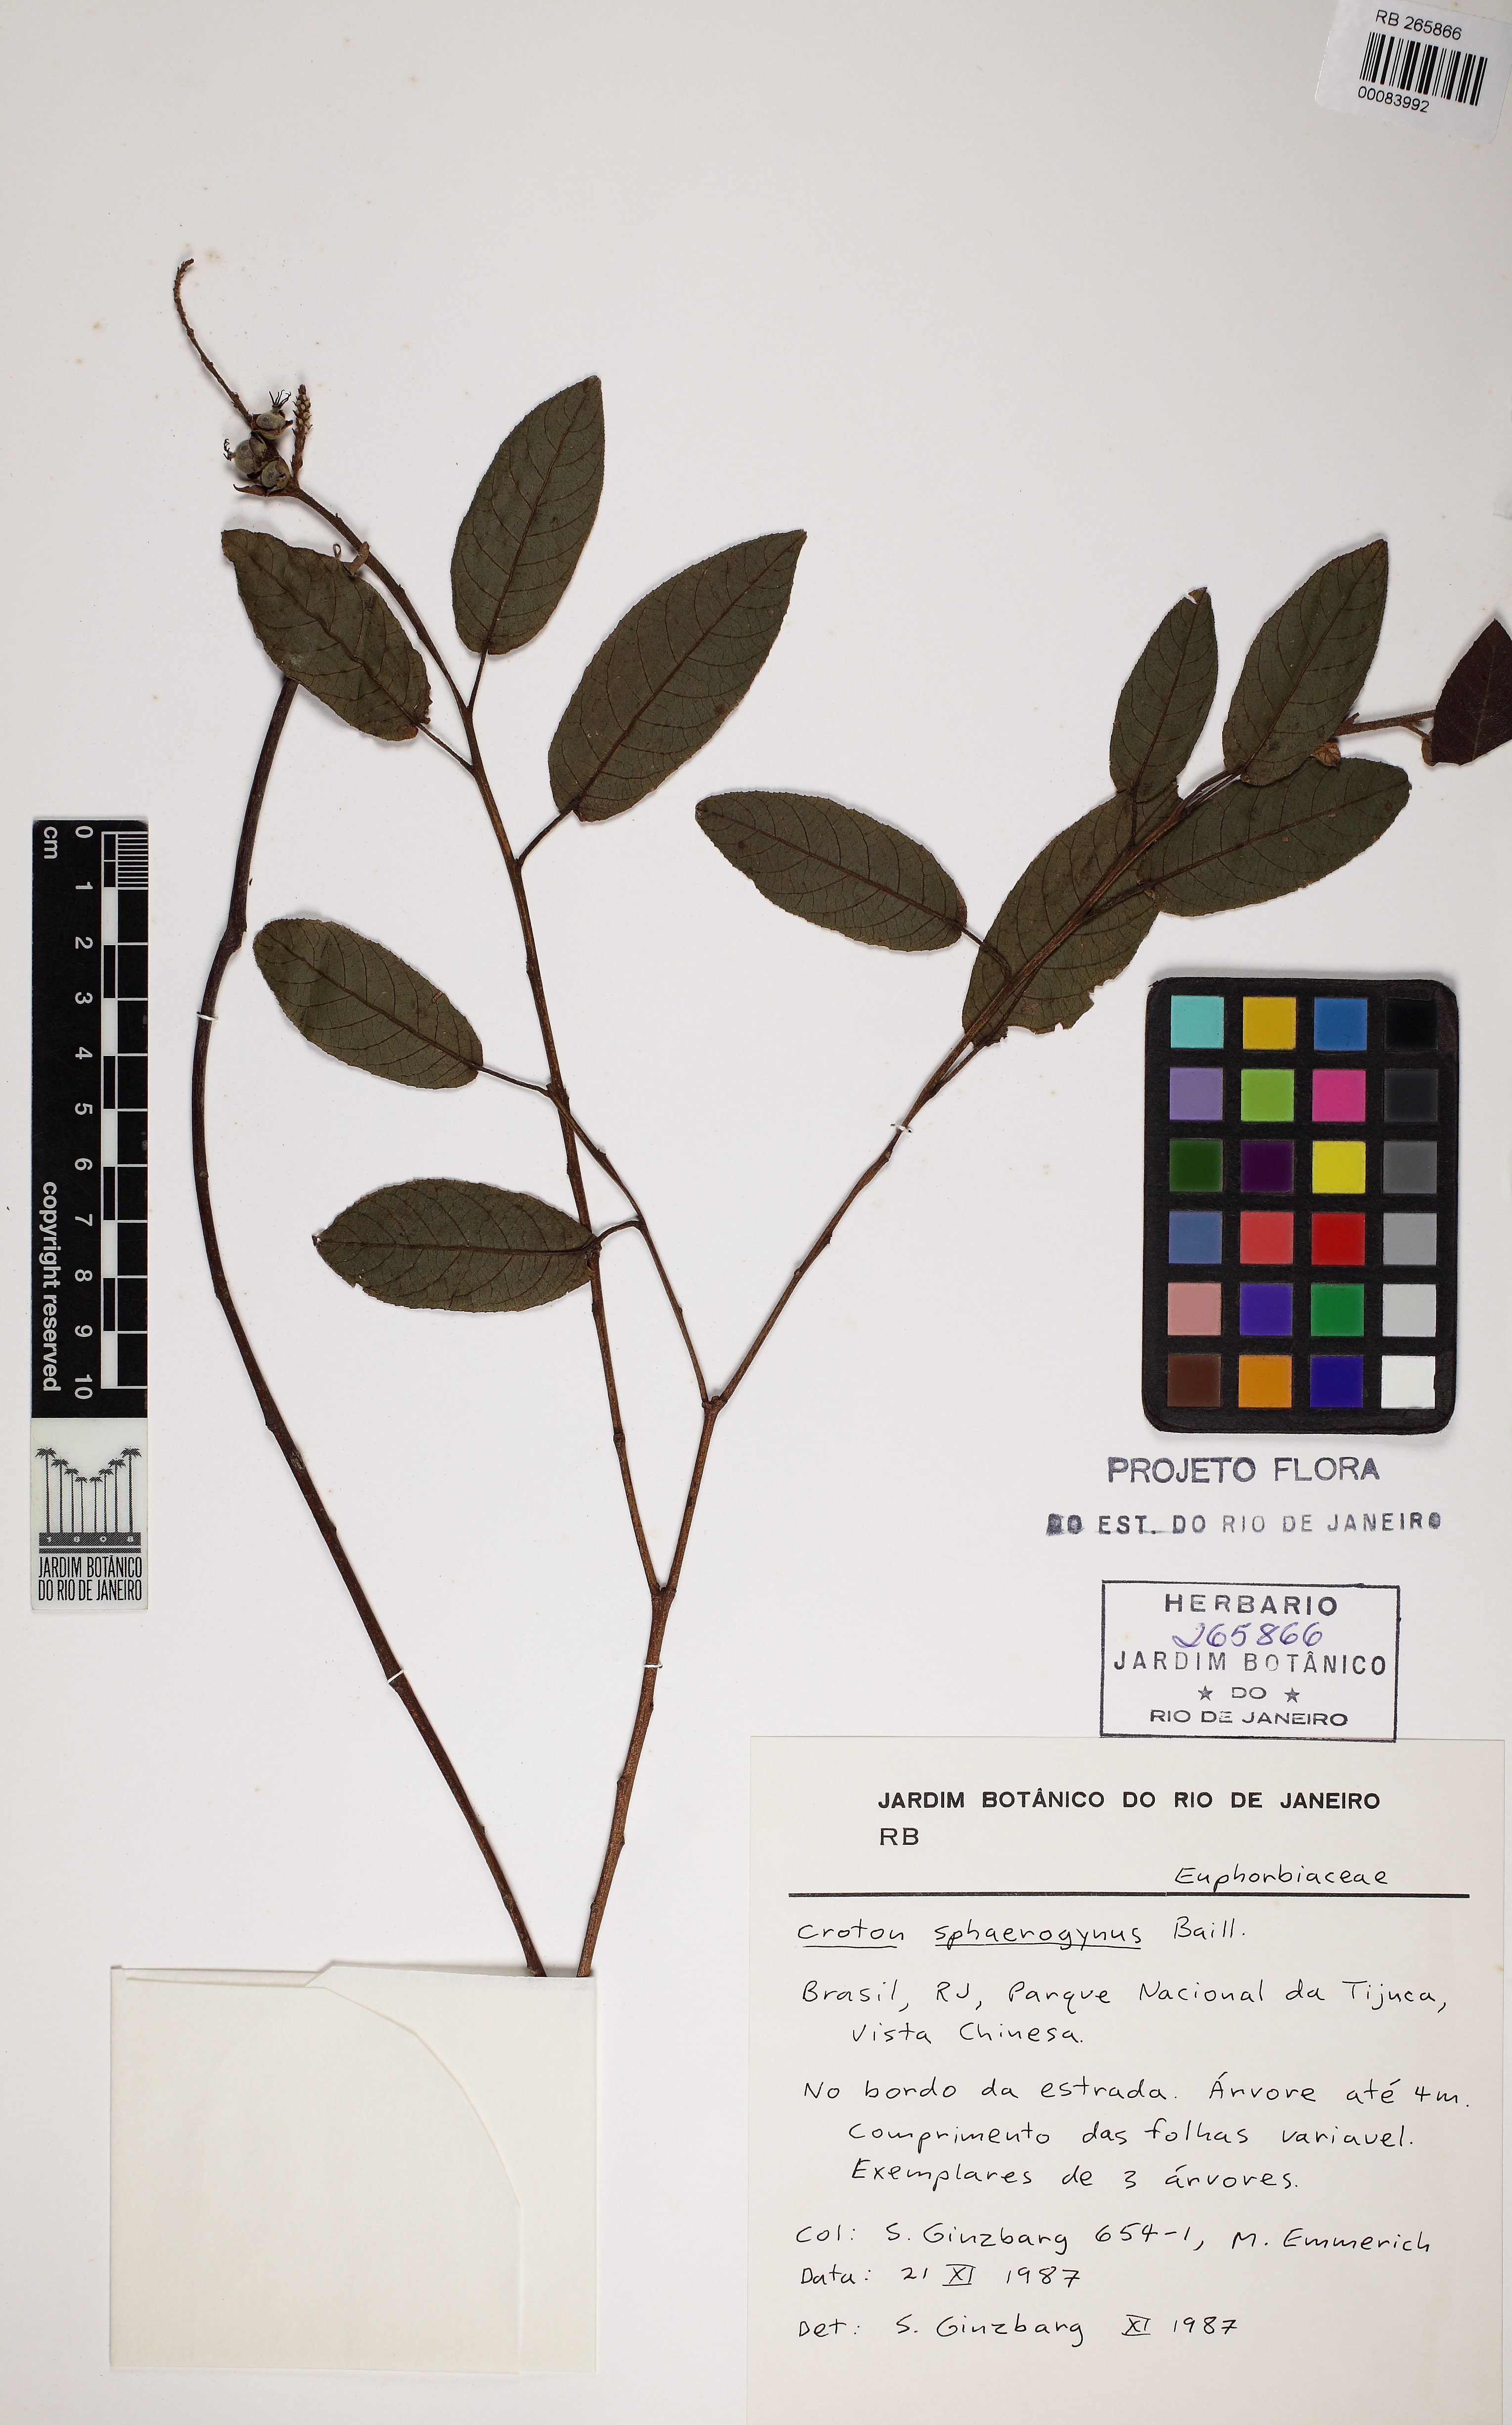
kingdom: Plantae
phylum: Tracheophyta
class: Magnoliopsida
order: Malpighiales
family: Euphorbiaceae
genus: Croton
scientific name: Croton sphaerogynus
